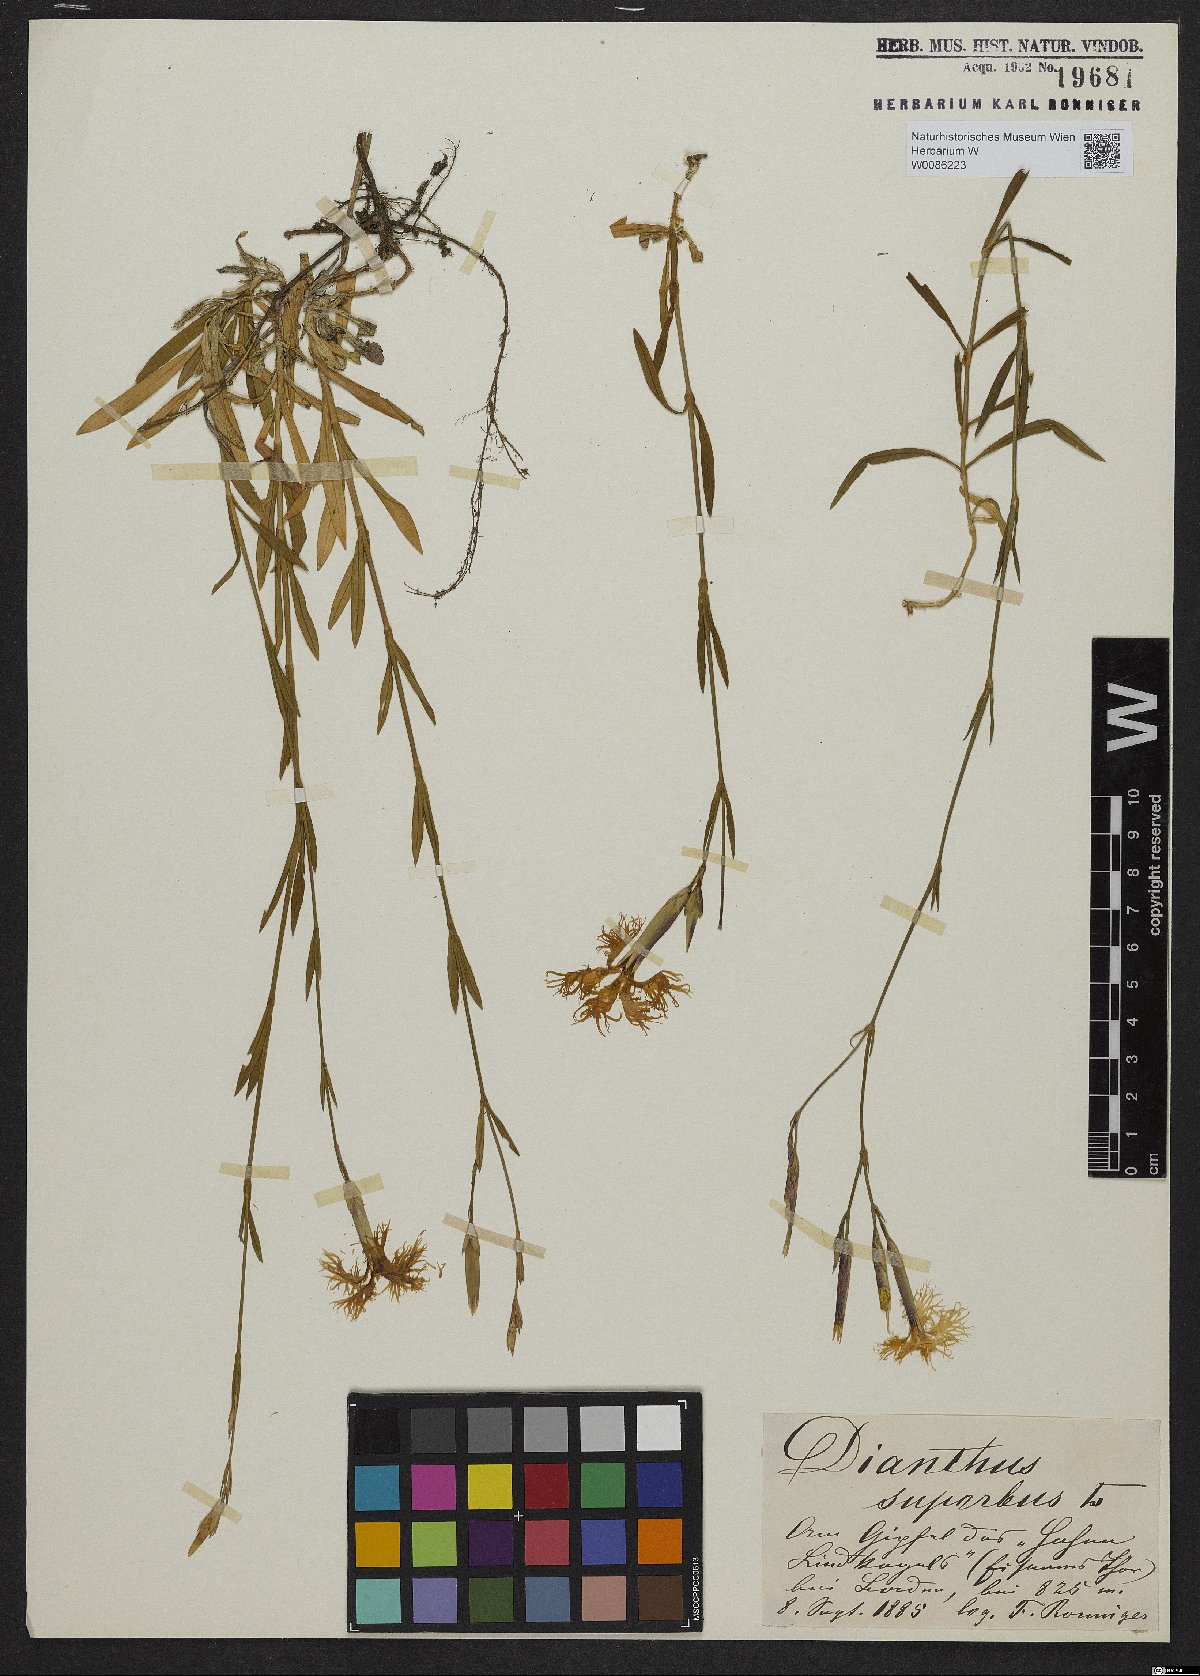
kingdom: Plantae
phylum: Tracheophyta
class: Magnoliopsida
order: Caryophyllales
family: Caryophyllaceae
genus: Dianthus
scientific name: Dianthus superbus
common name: Fringed pink
